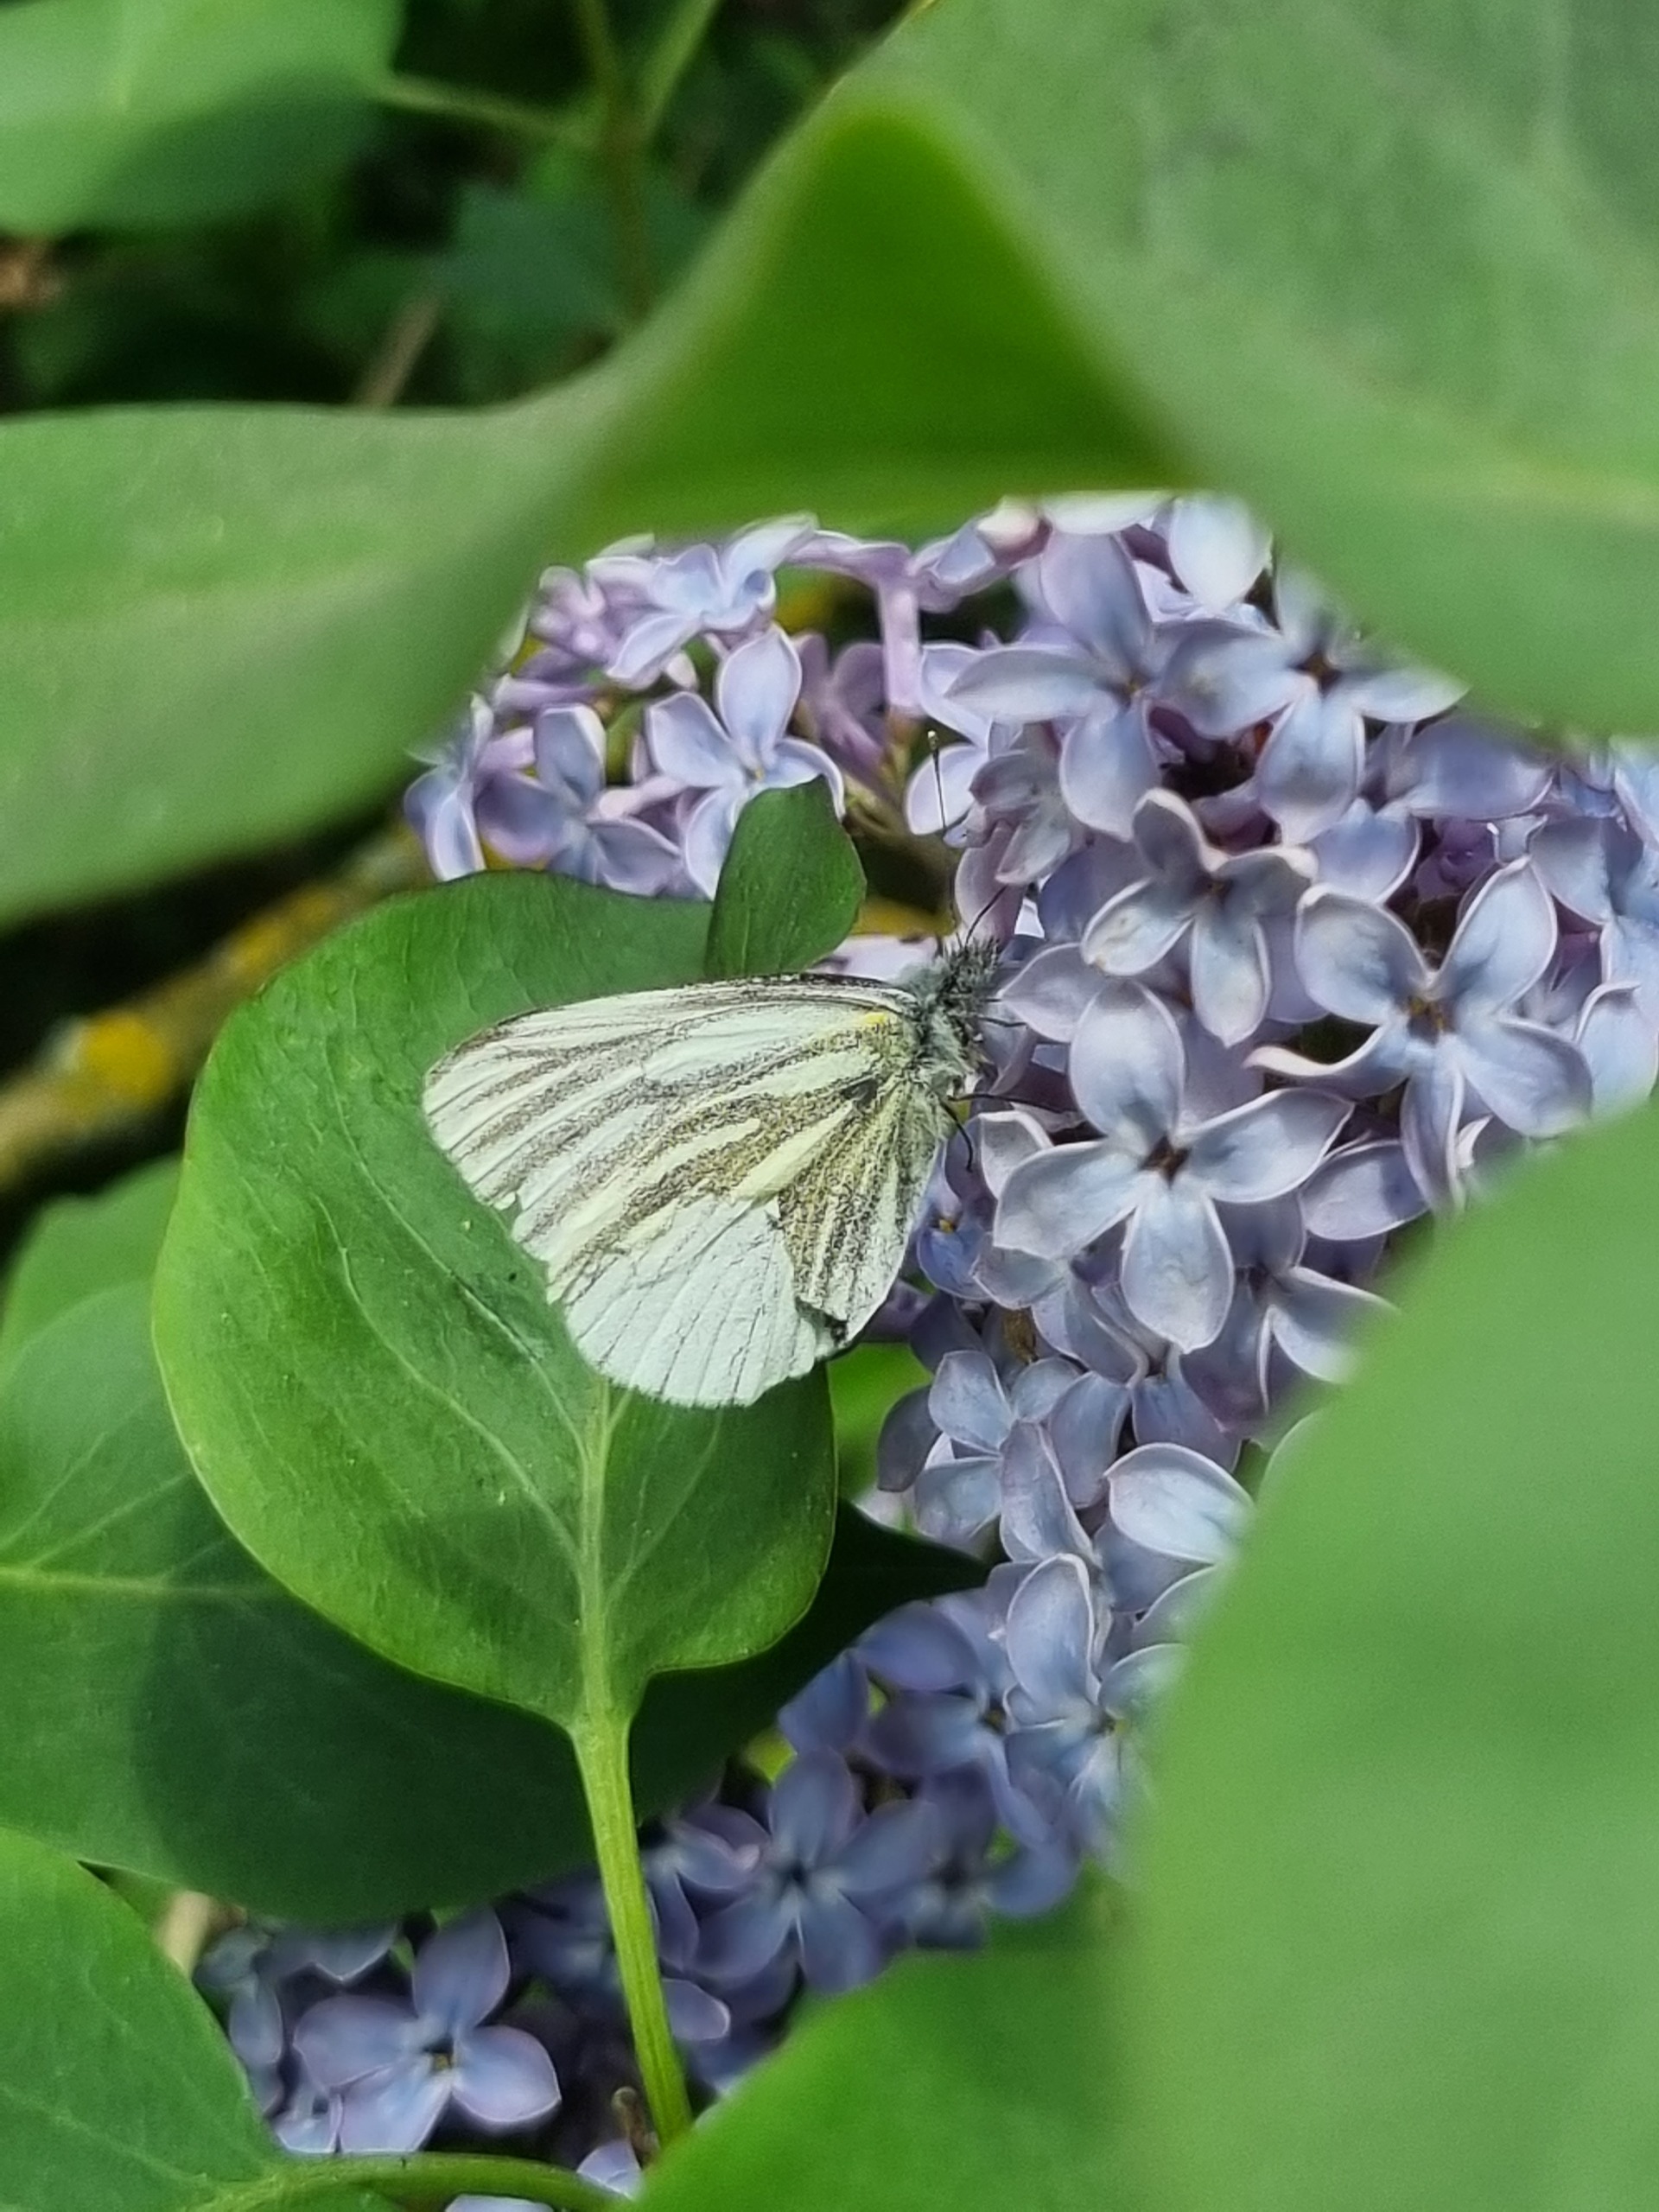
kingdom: Animalia
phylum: Arthropoda
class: Insecta
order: Lepidoptera
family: Pieridae
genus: Pieris
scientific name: Pieris napi
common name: Grønåret kålsommerfugl
